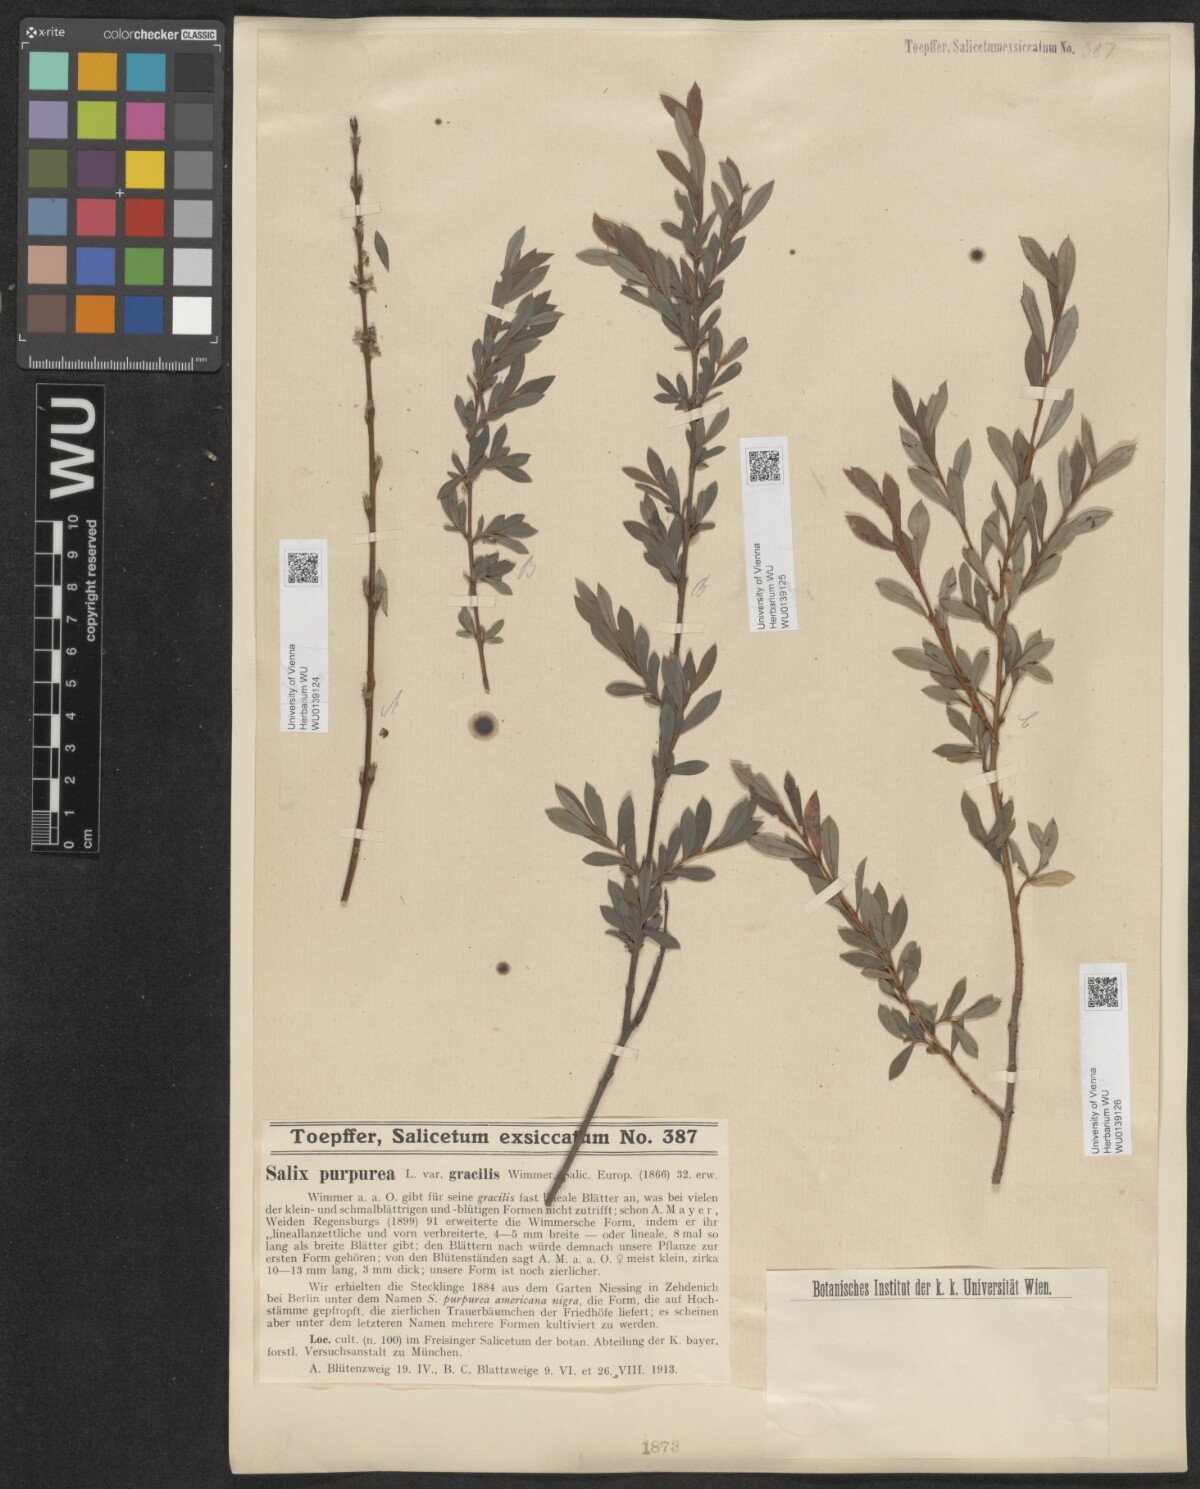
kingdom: Plantae
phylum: Tracheophyta
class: Magnoliopsida
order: Malpighiales
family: Salicaceae
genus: Salix
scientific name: Salix purpurea
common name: Purple willow
